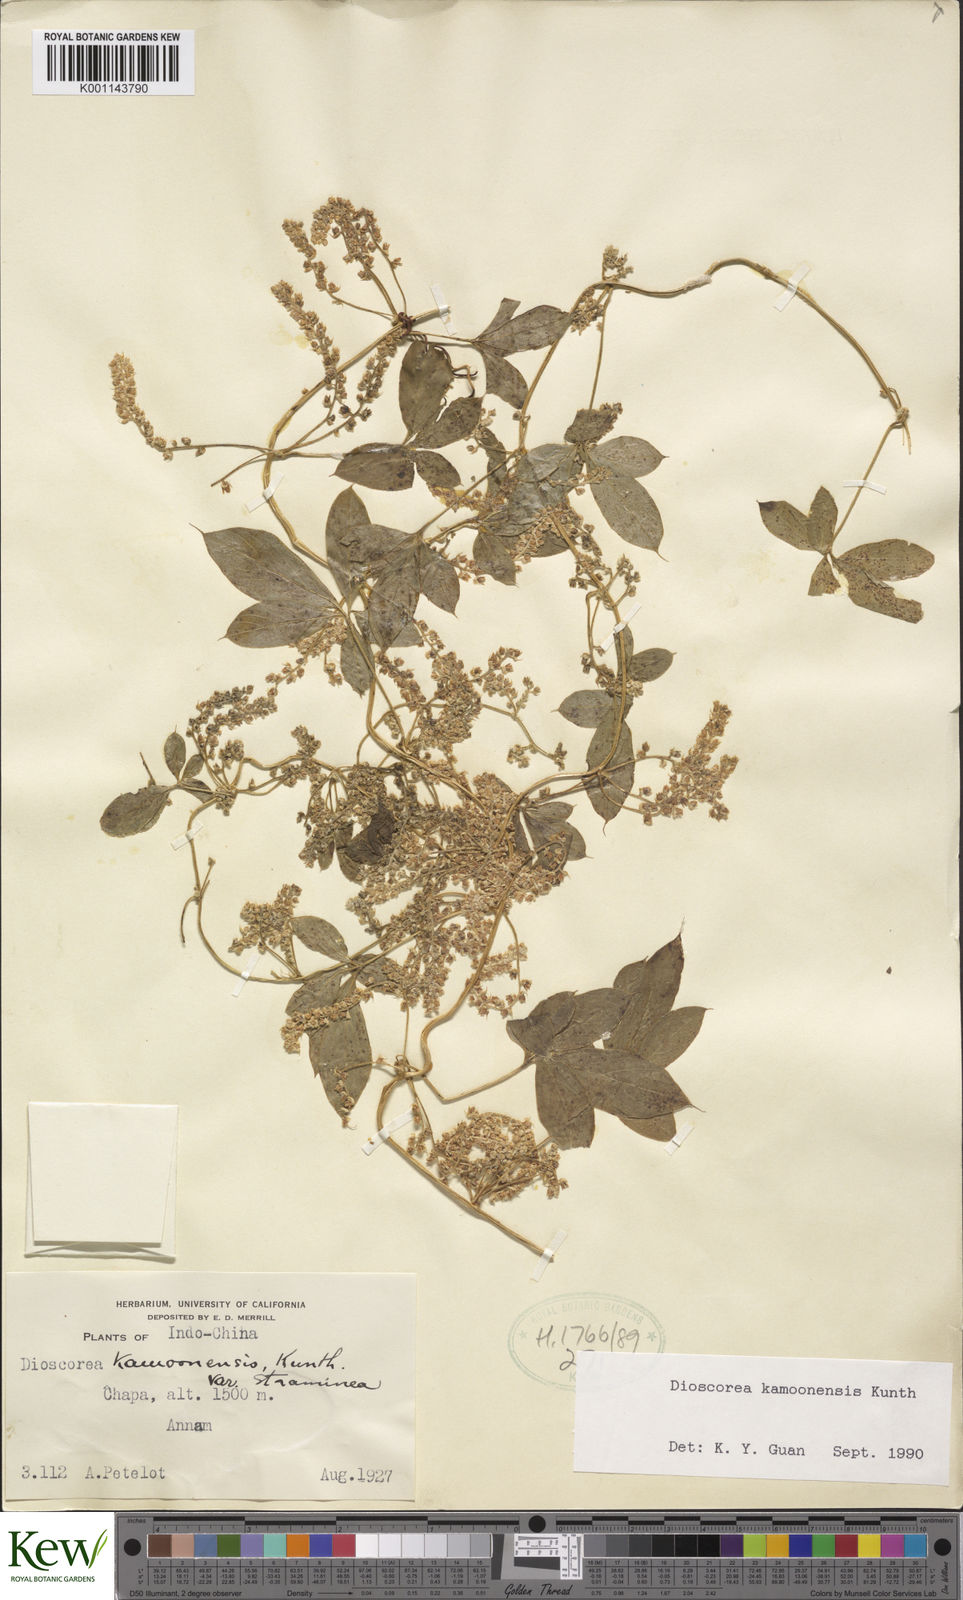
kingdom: Plantae
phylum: Tracheophyta
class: Liliopsida
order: Dioscoreales
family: Dioscoreaceae
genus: Dioscorea
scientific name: Dioscorea kamoonensis
